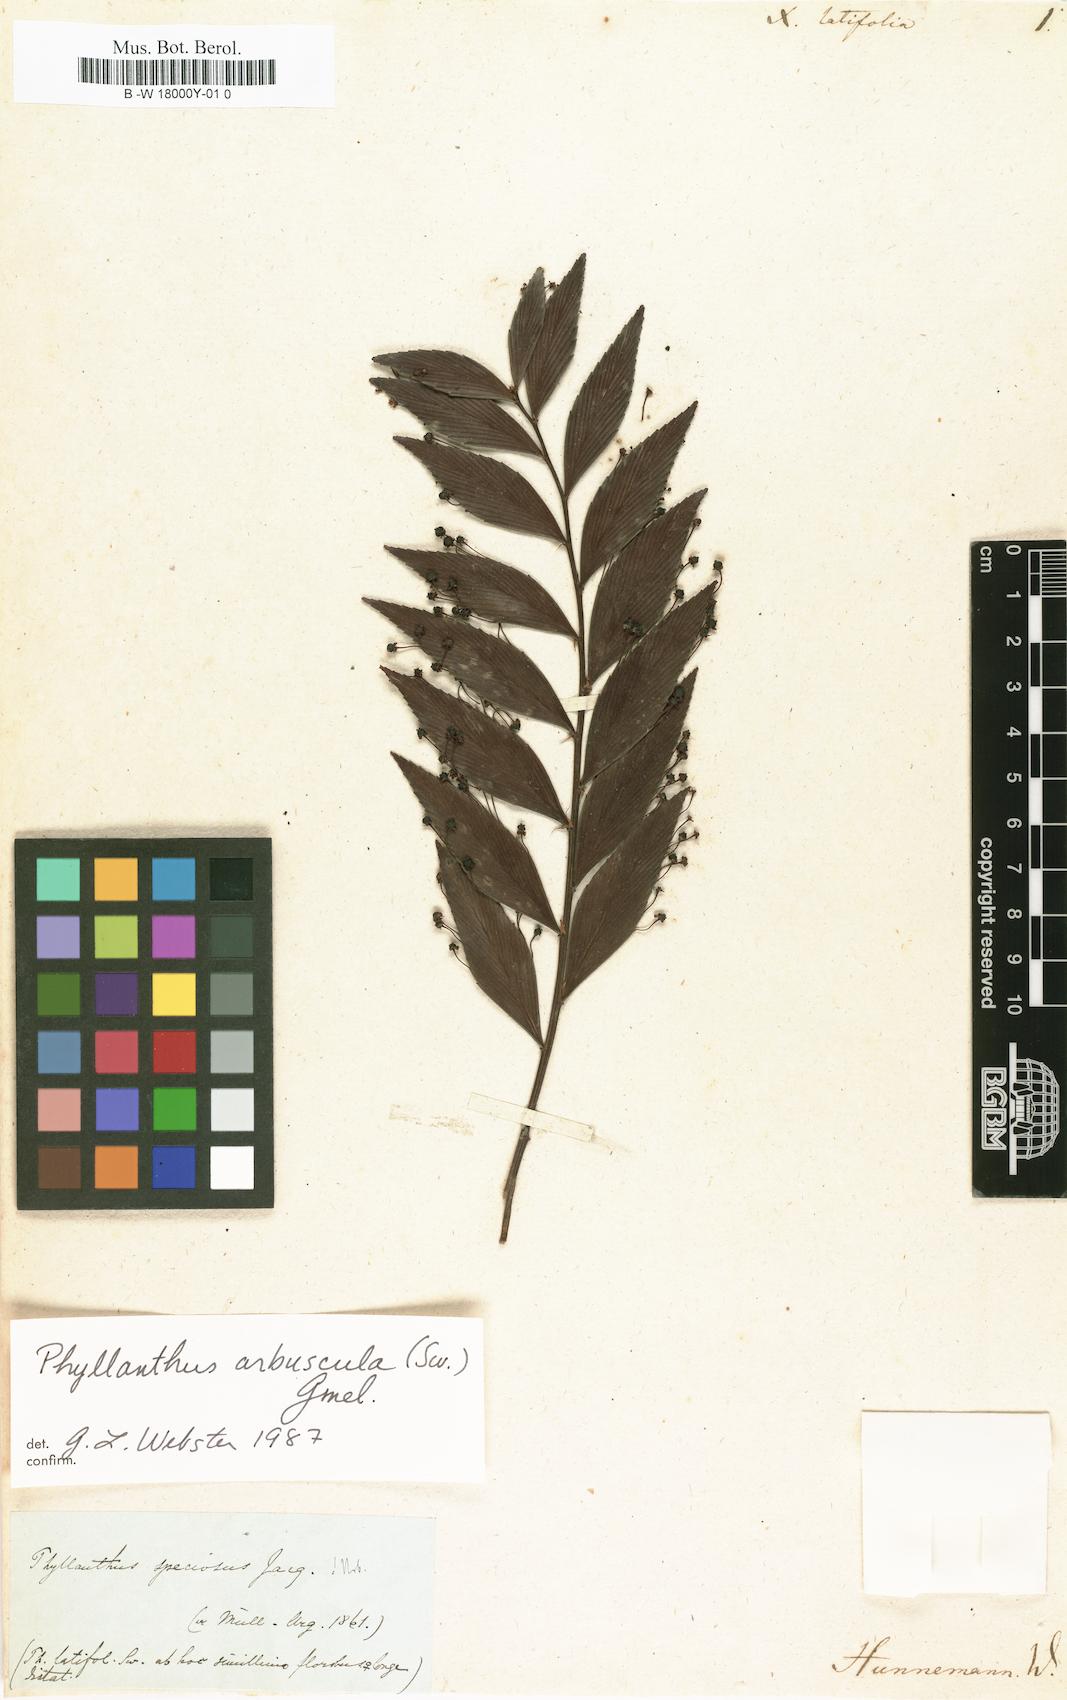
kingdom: Plantae
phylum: Tracheophyta
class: Magnoliopsida
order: Malpighiales
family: Phyllanthaceae
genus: Phyllanthus
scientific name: Phyllanthus latifolius
